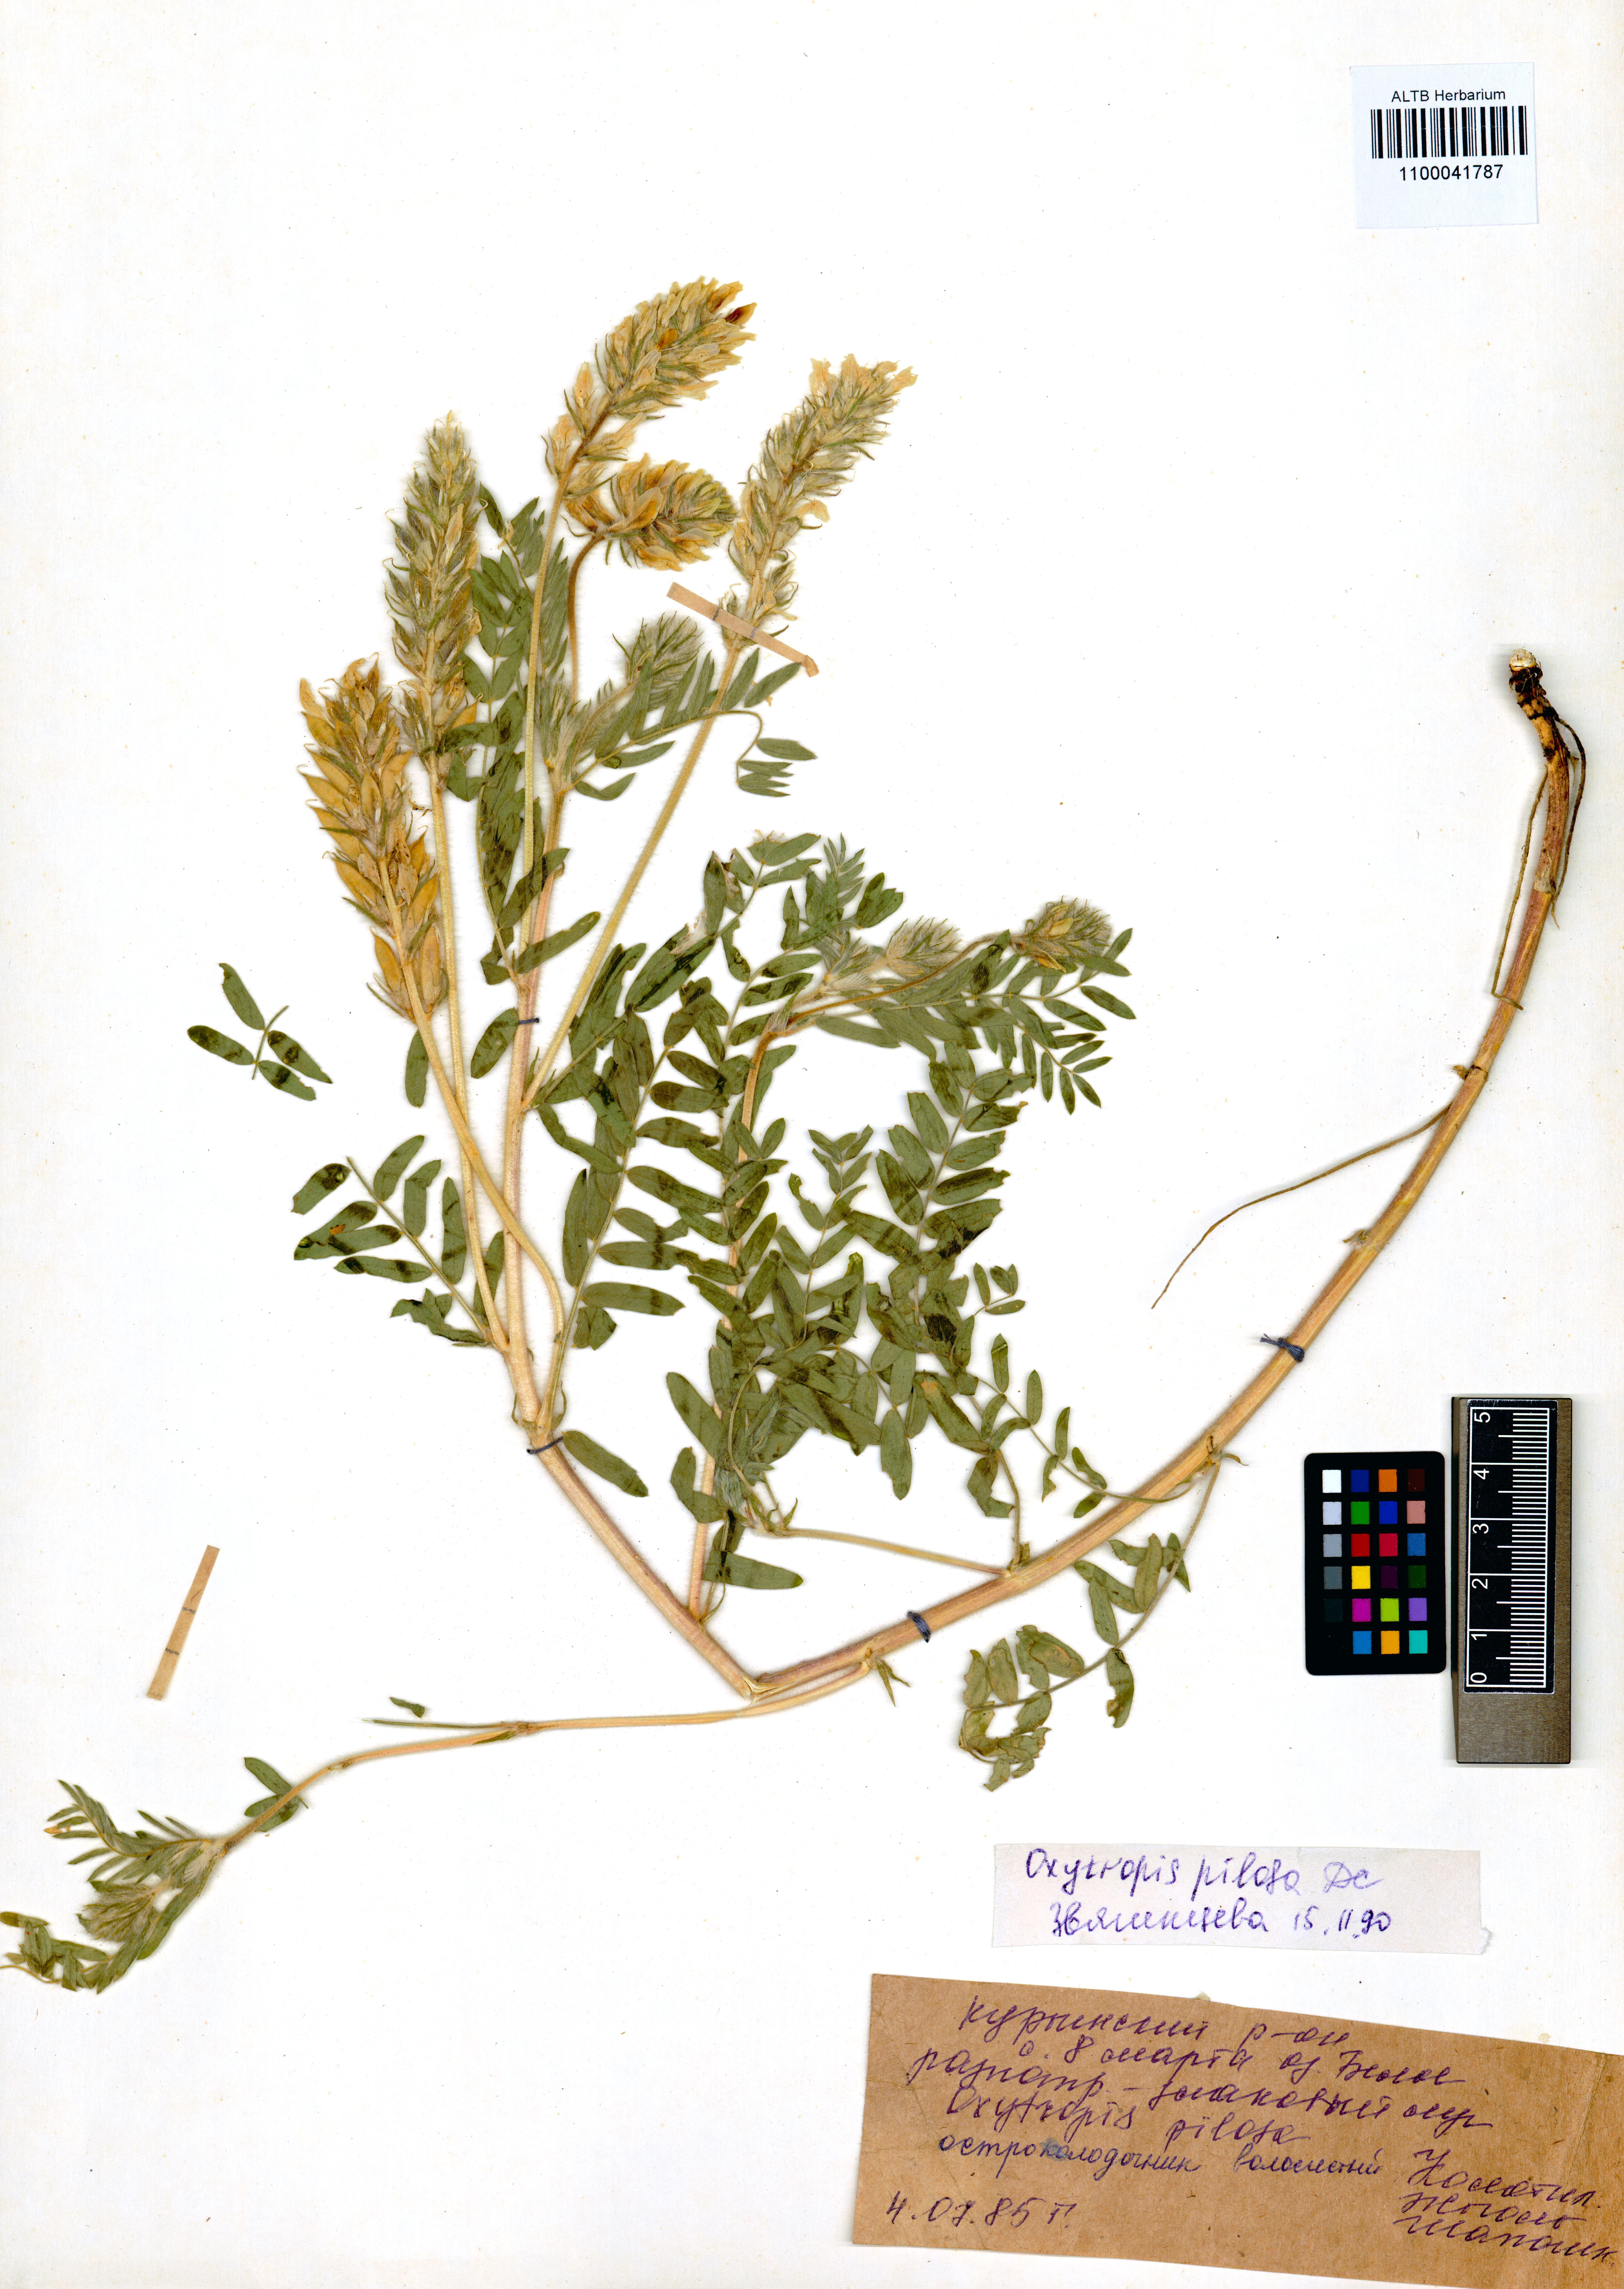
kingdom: Plantae
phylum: Tracheophyta
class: Magnoliopsida
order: Fabales
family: Fabaceae
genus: Oxytropis
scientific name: Oxytropis pilosa
